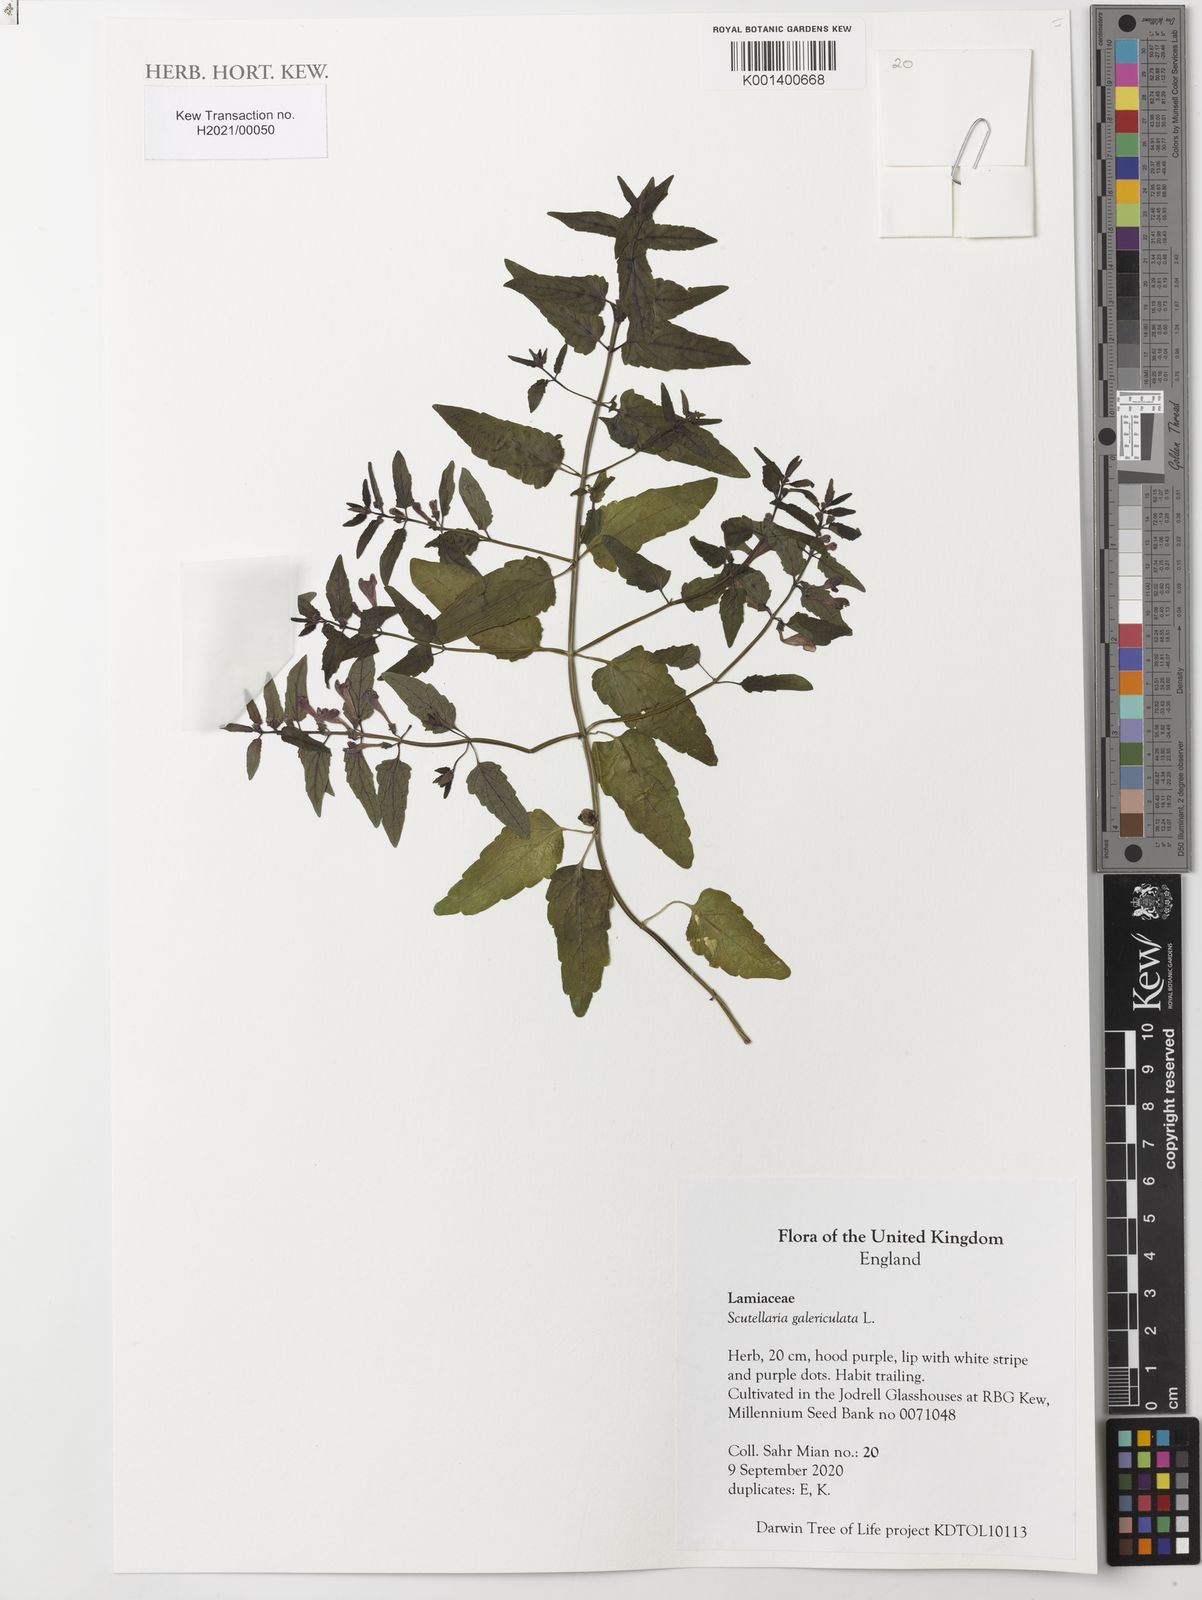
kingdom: Plantae
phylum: Tracheophyta
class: Magnoliopsida
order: Lamiales
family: Lamiaceae
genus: Scutellaria
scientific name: Scutellaria galericulata
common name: Skullcap
